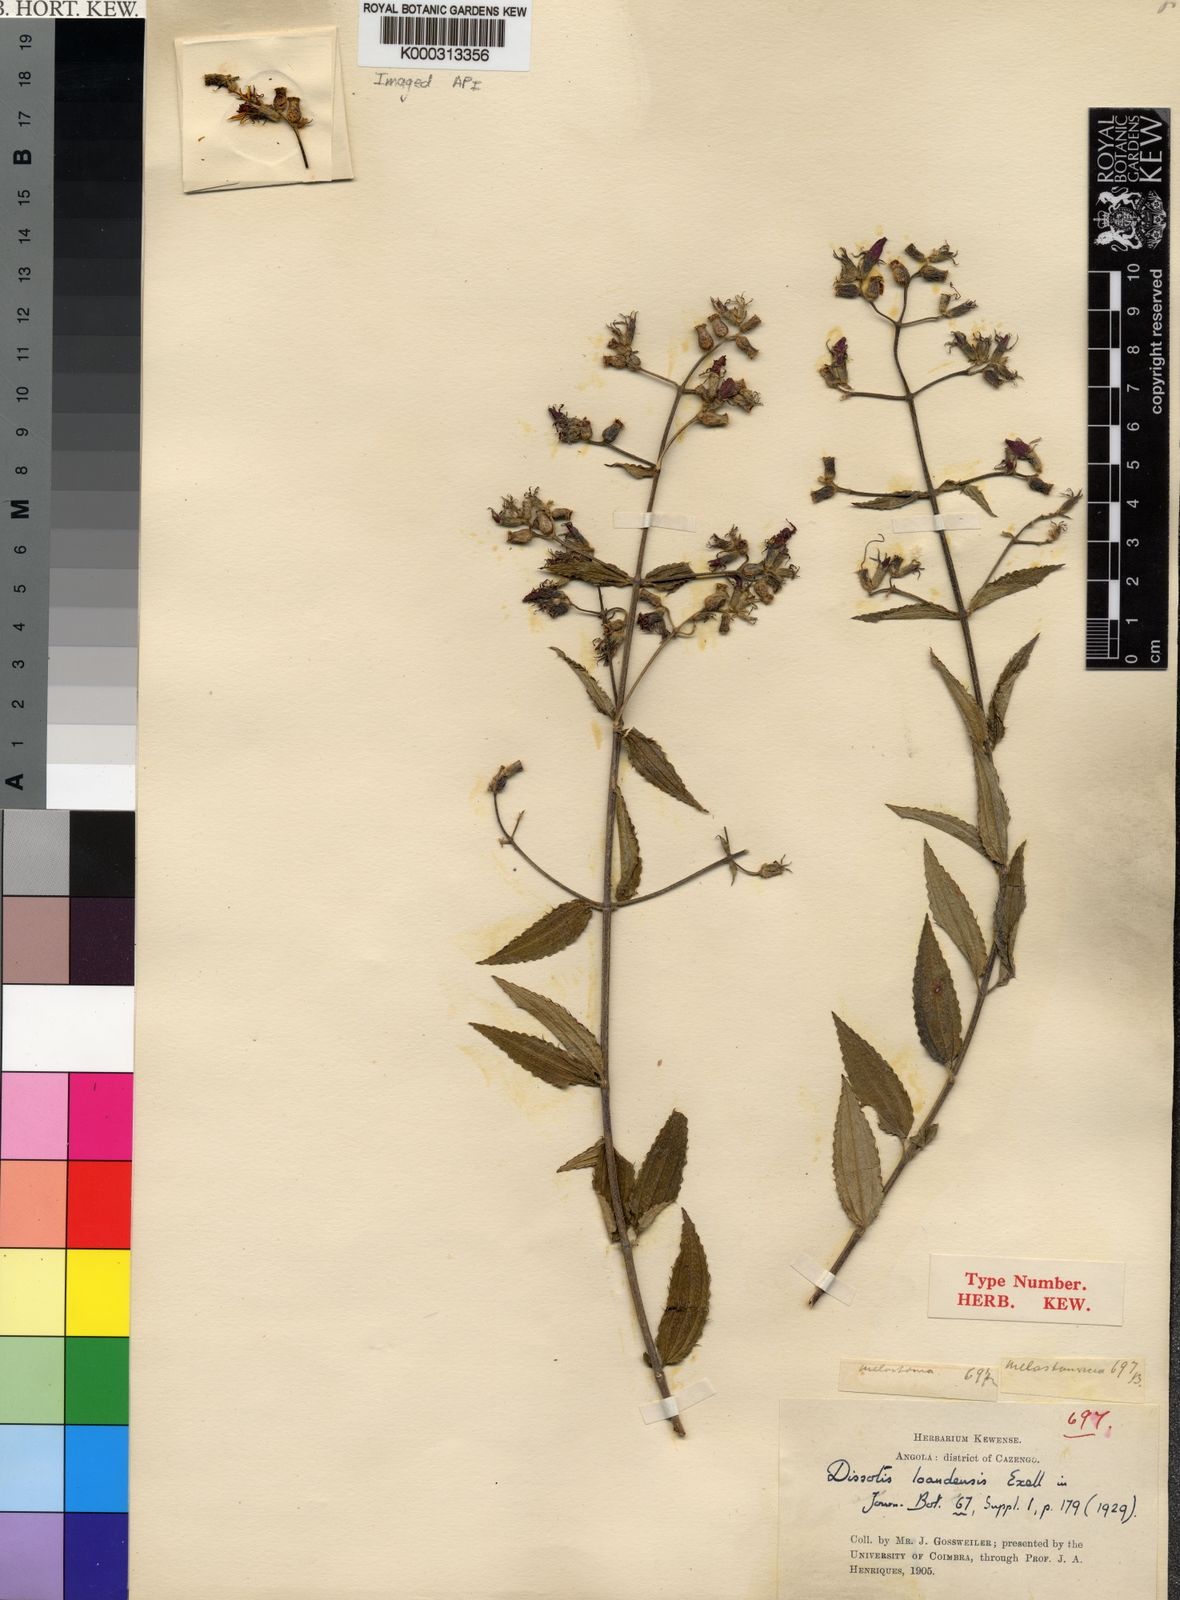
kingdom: Plantae
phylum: Tracheophyta
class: Magnoliopsida
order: Myrtales
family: Melastomataceae
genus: Dupineta
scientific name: Dupineta loandensis
